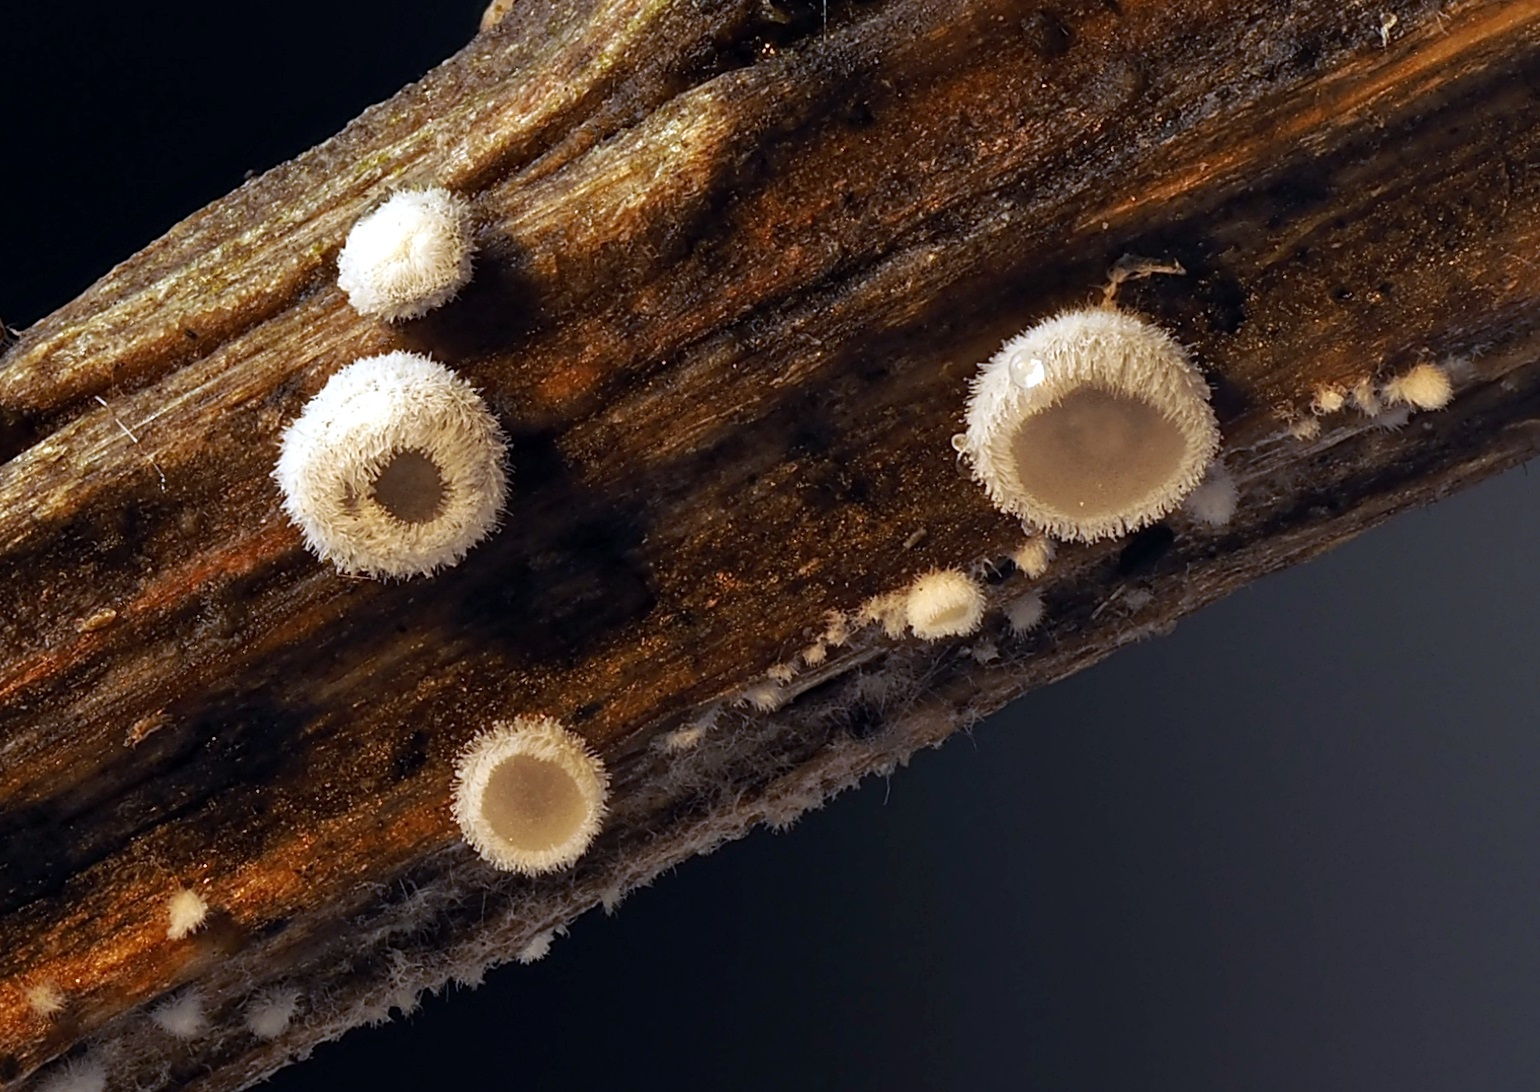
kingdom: Fungi
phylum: Basidiomycota
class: Agaricomycetes
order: Agaricales
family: Niaceae
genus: Lachnella
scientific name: Lachnella alboviolascens
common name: grå frynserede
